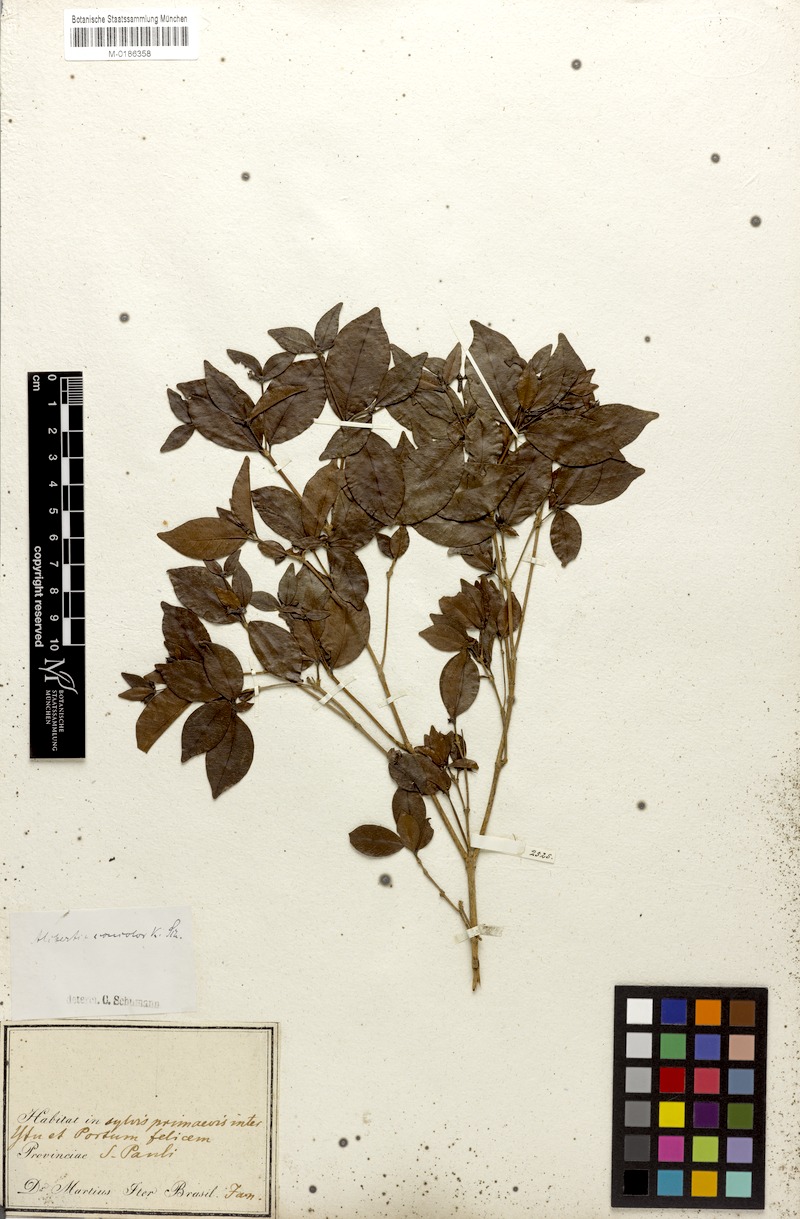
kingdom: Plantae
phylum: Tracheophyta
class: Magnoliopsida
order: Gentianales
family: Rubiaceae
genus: Cordiera
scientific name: Cordiera concolor
